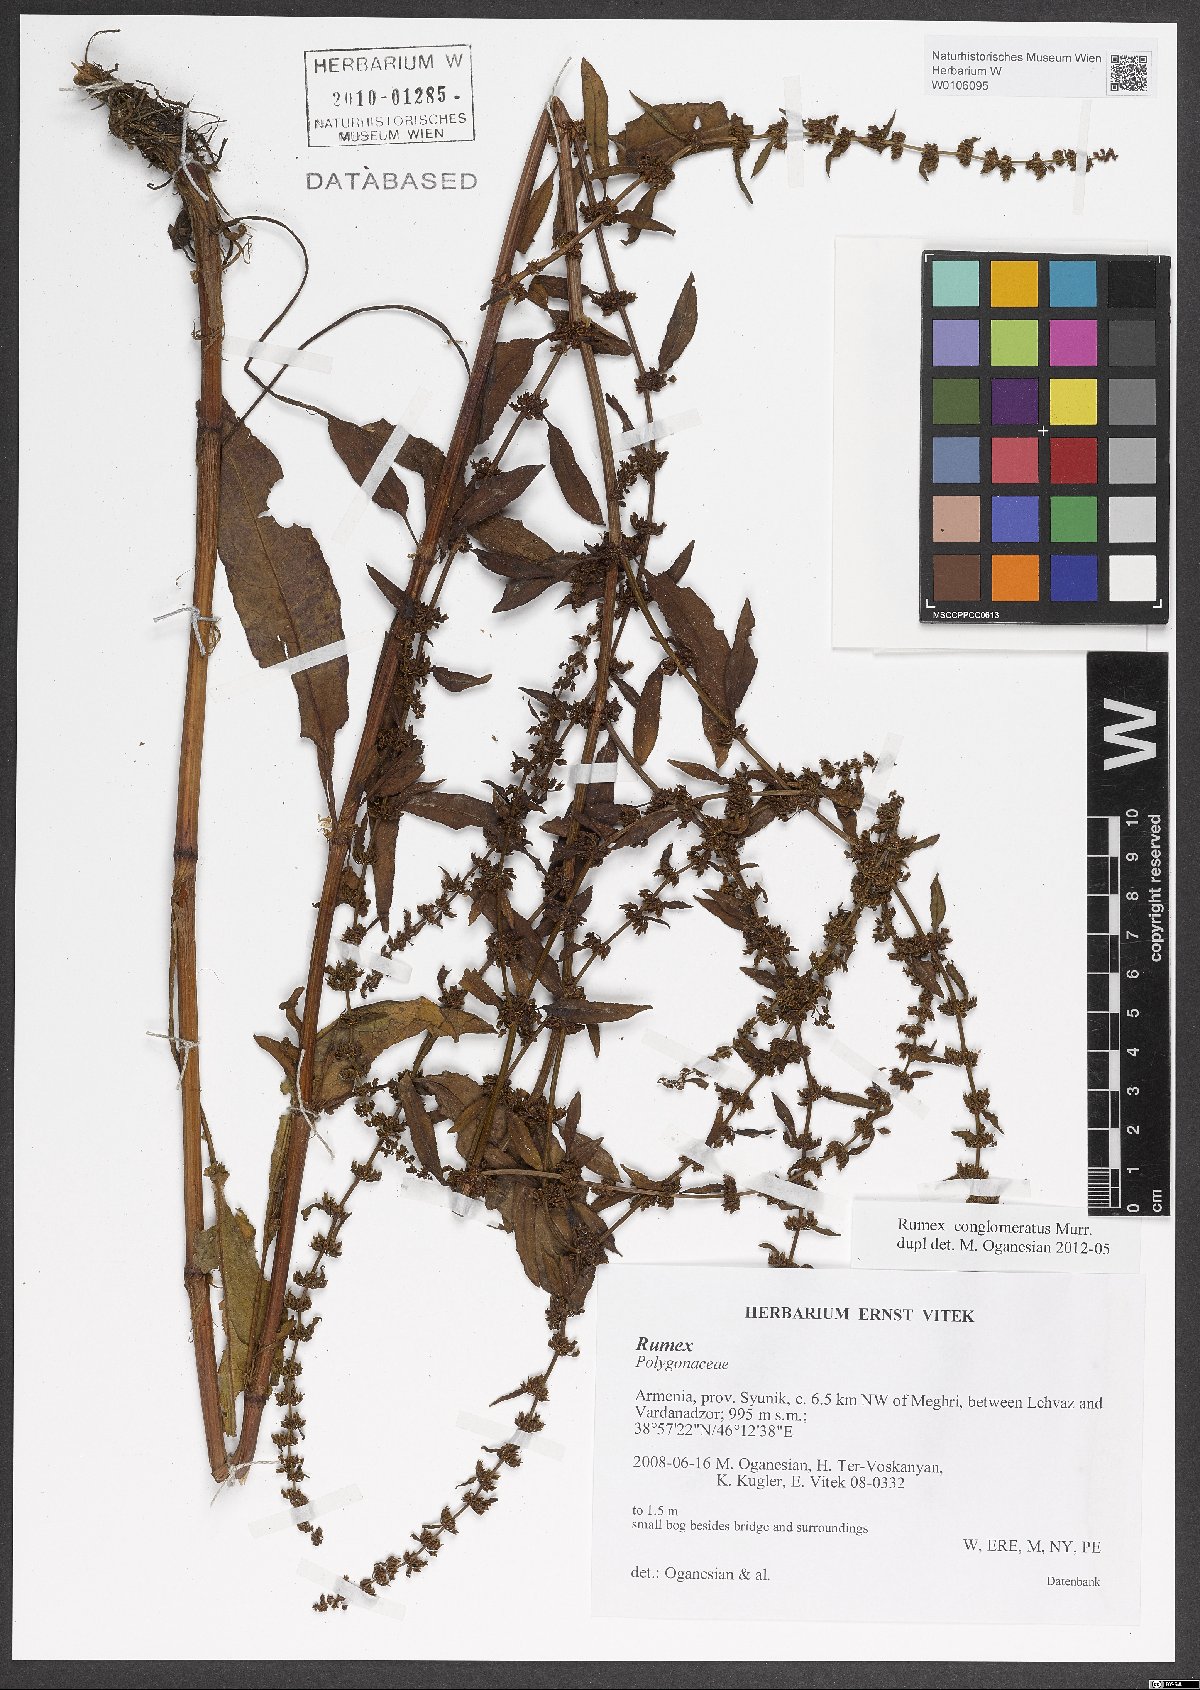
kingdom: Plantae
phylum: Tracheophyta
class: Magnoliopsida
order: Caryophyllales
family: Polygonaceae
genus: Rumex
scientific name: Rumex conglomeratus
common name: Clustered dock
